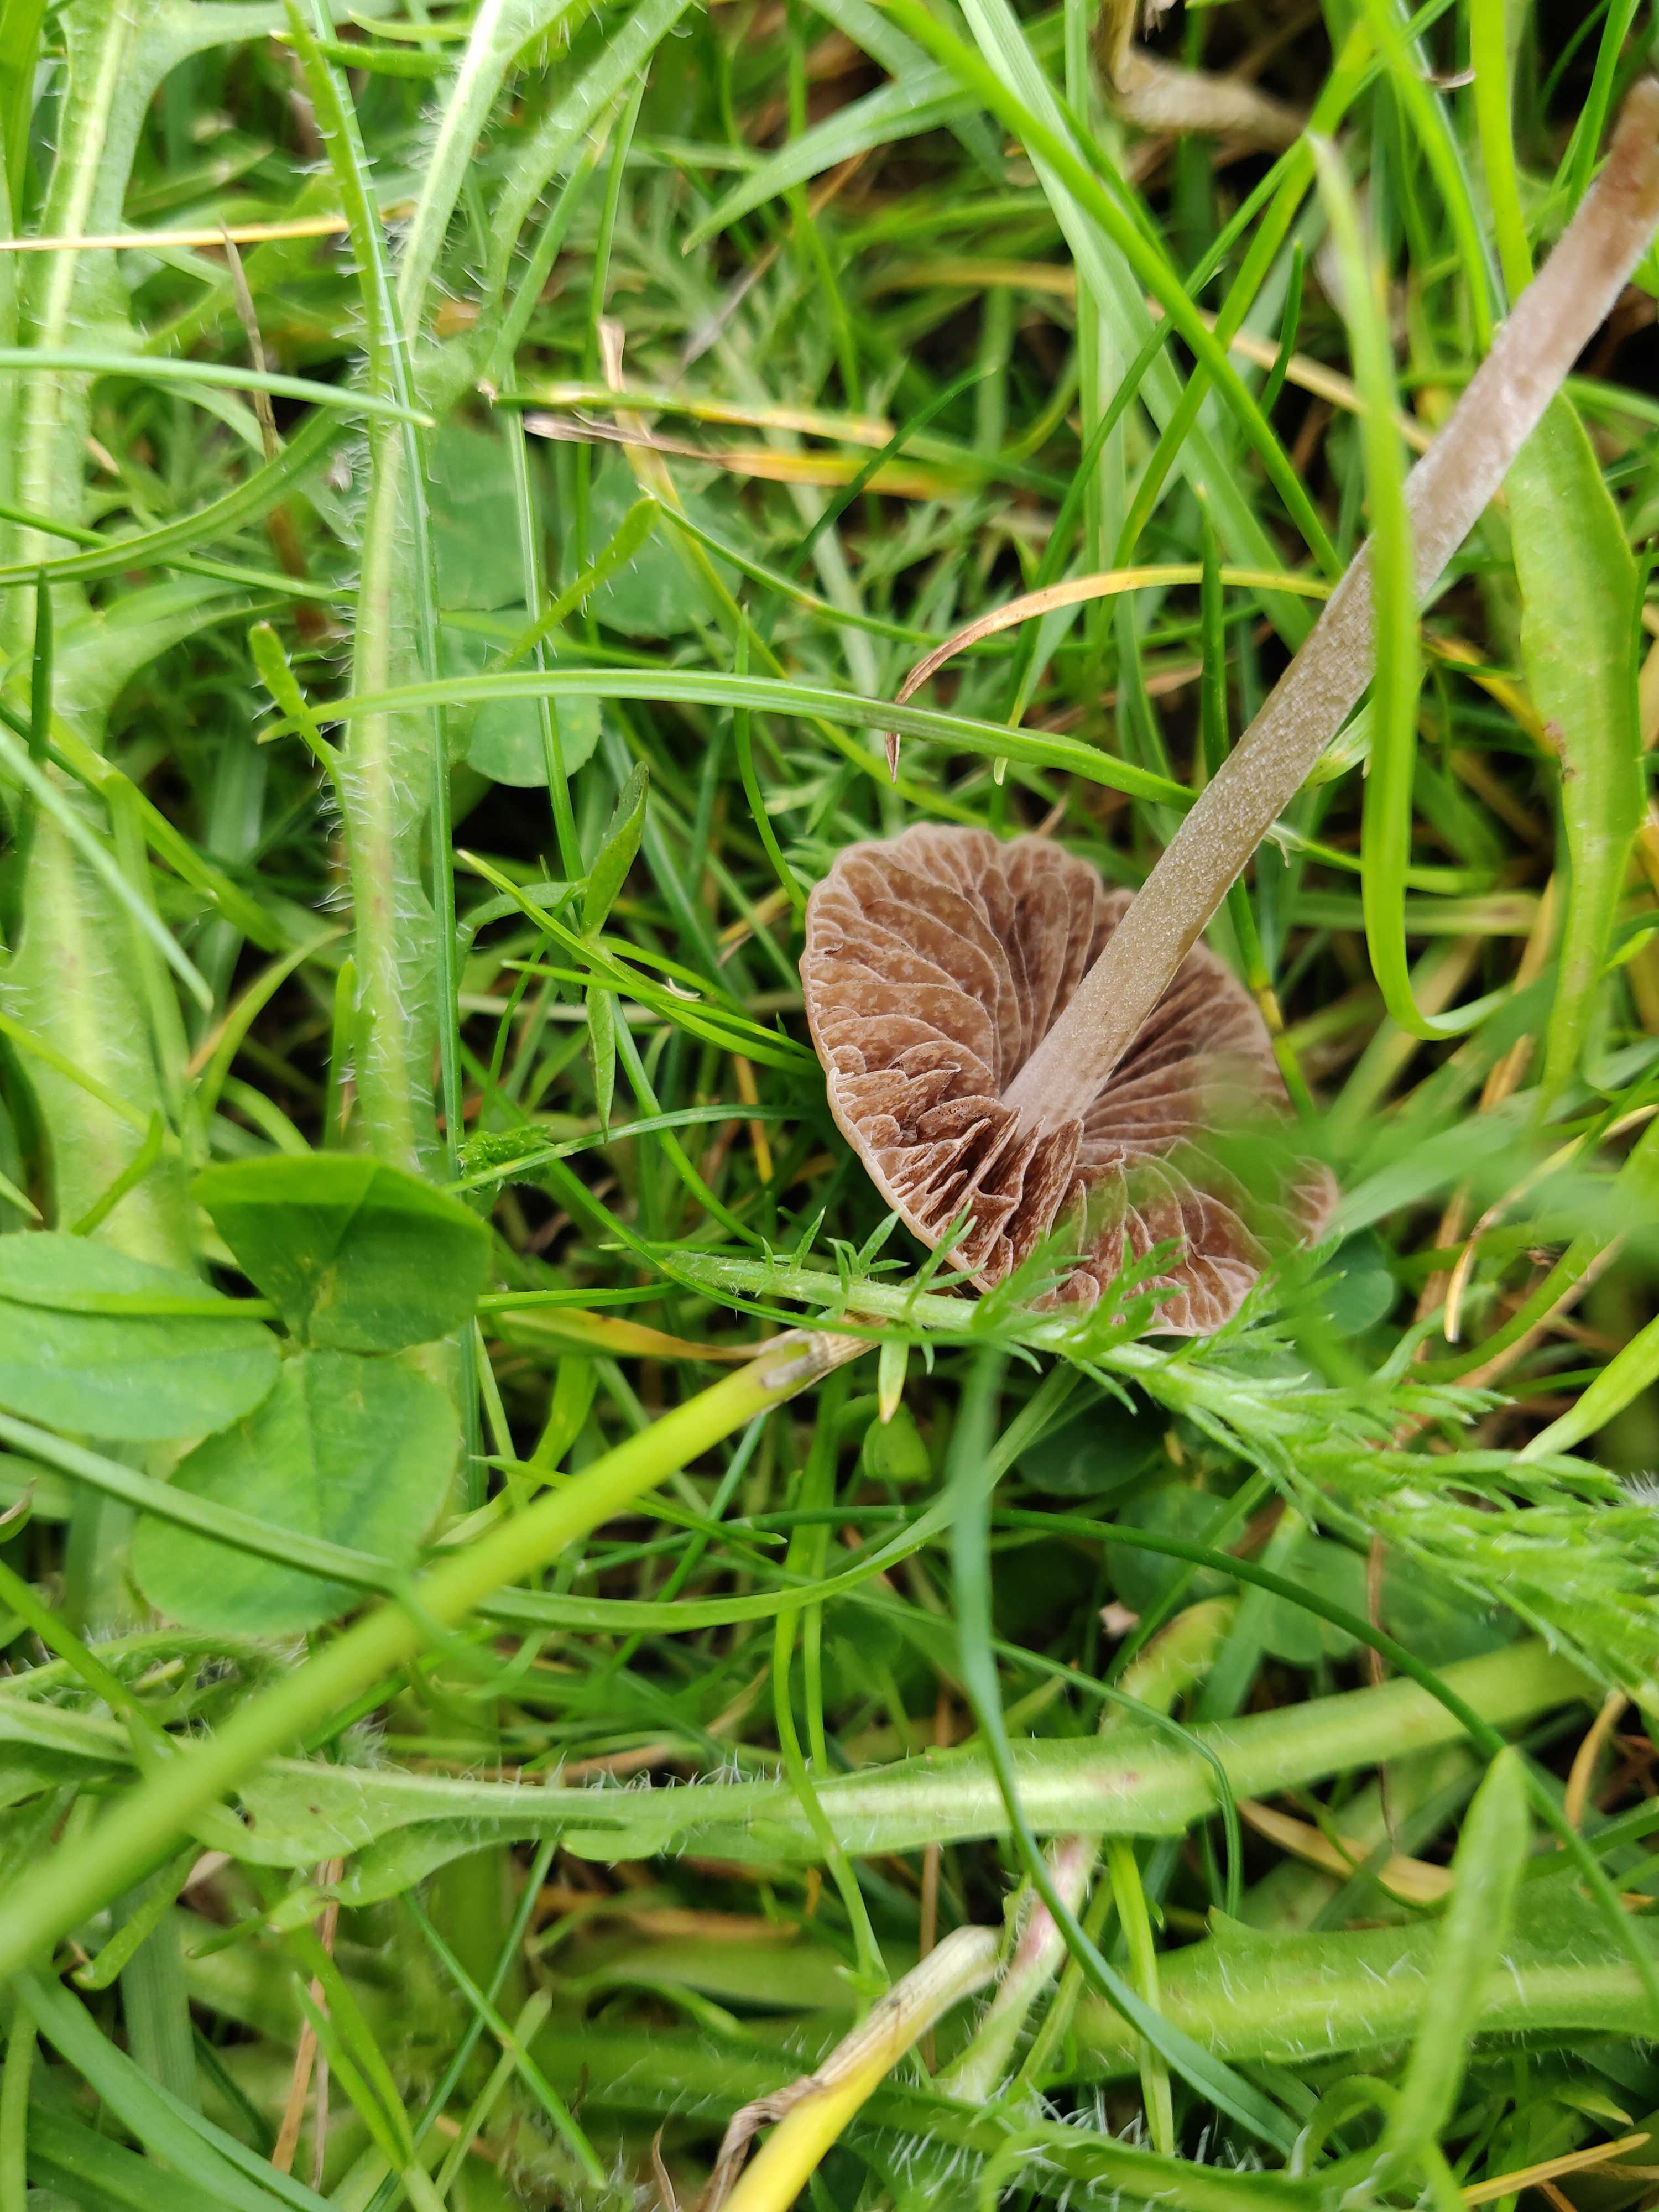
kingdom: Fungi
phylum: Basidiomycota
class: Agaricomycetes
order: Agaricales
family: Bolbitiaceae
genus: Panaeolina
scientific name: Panaeolina foenisecii
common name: høslætsvamp
